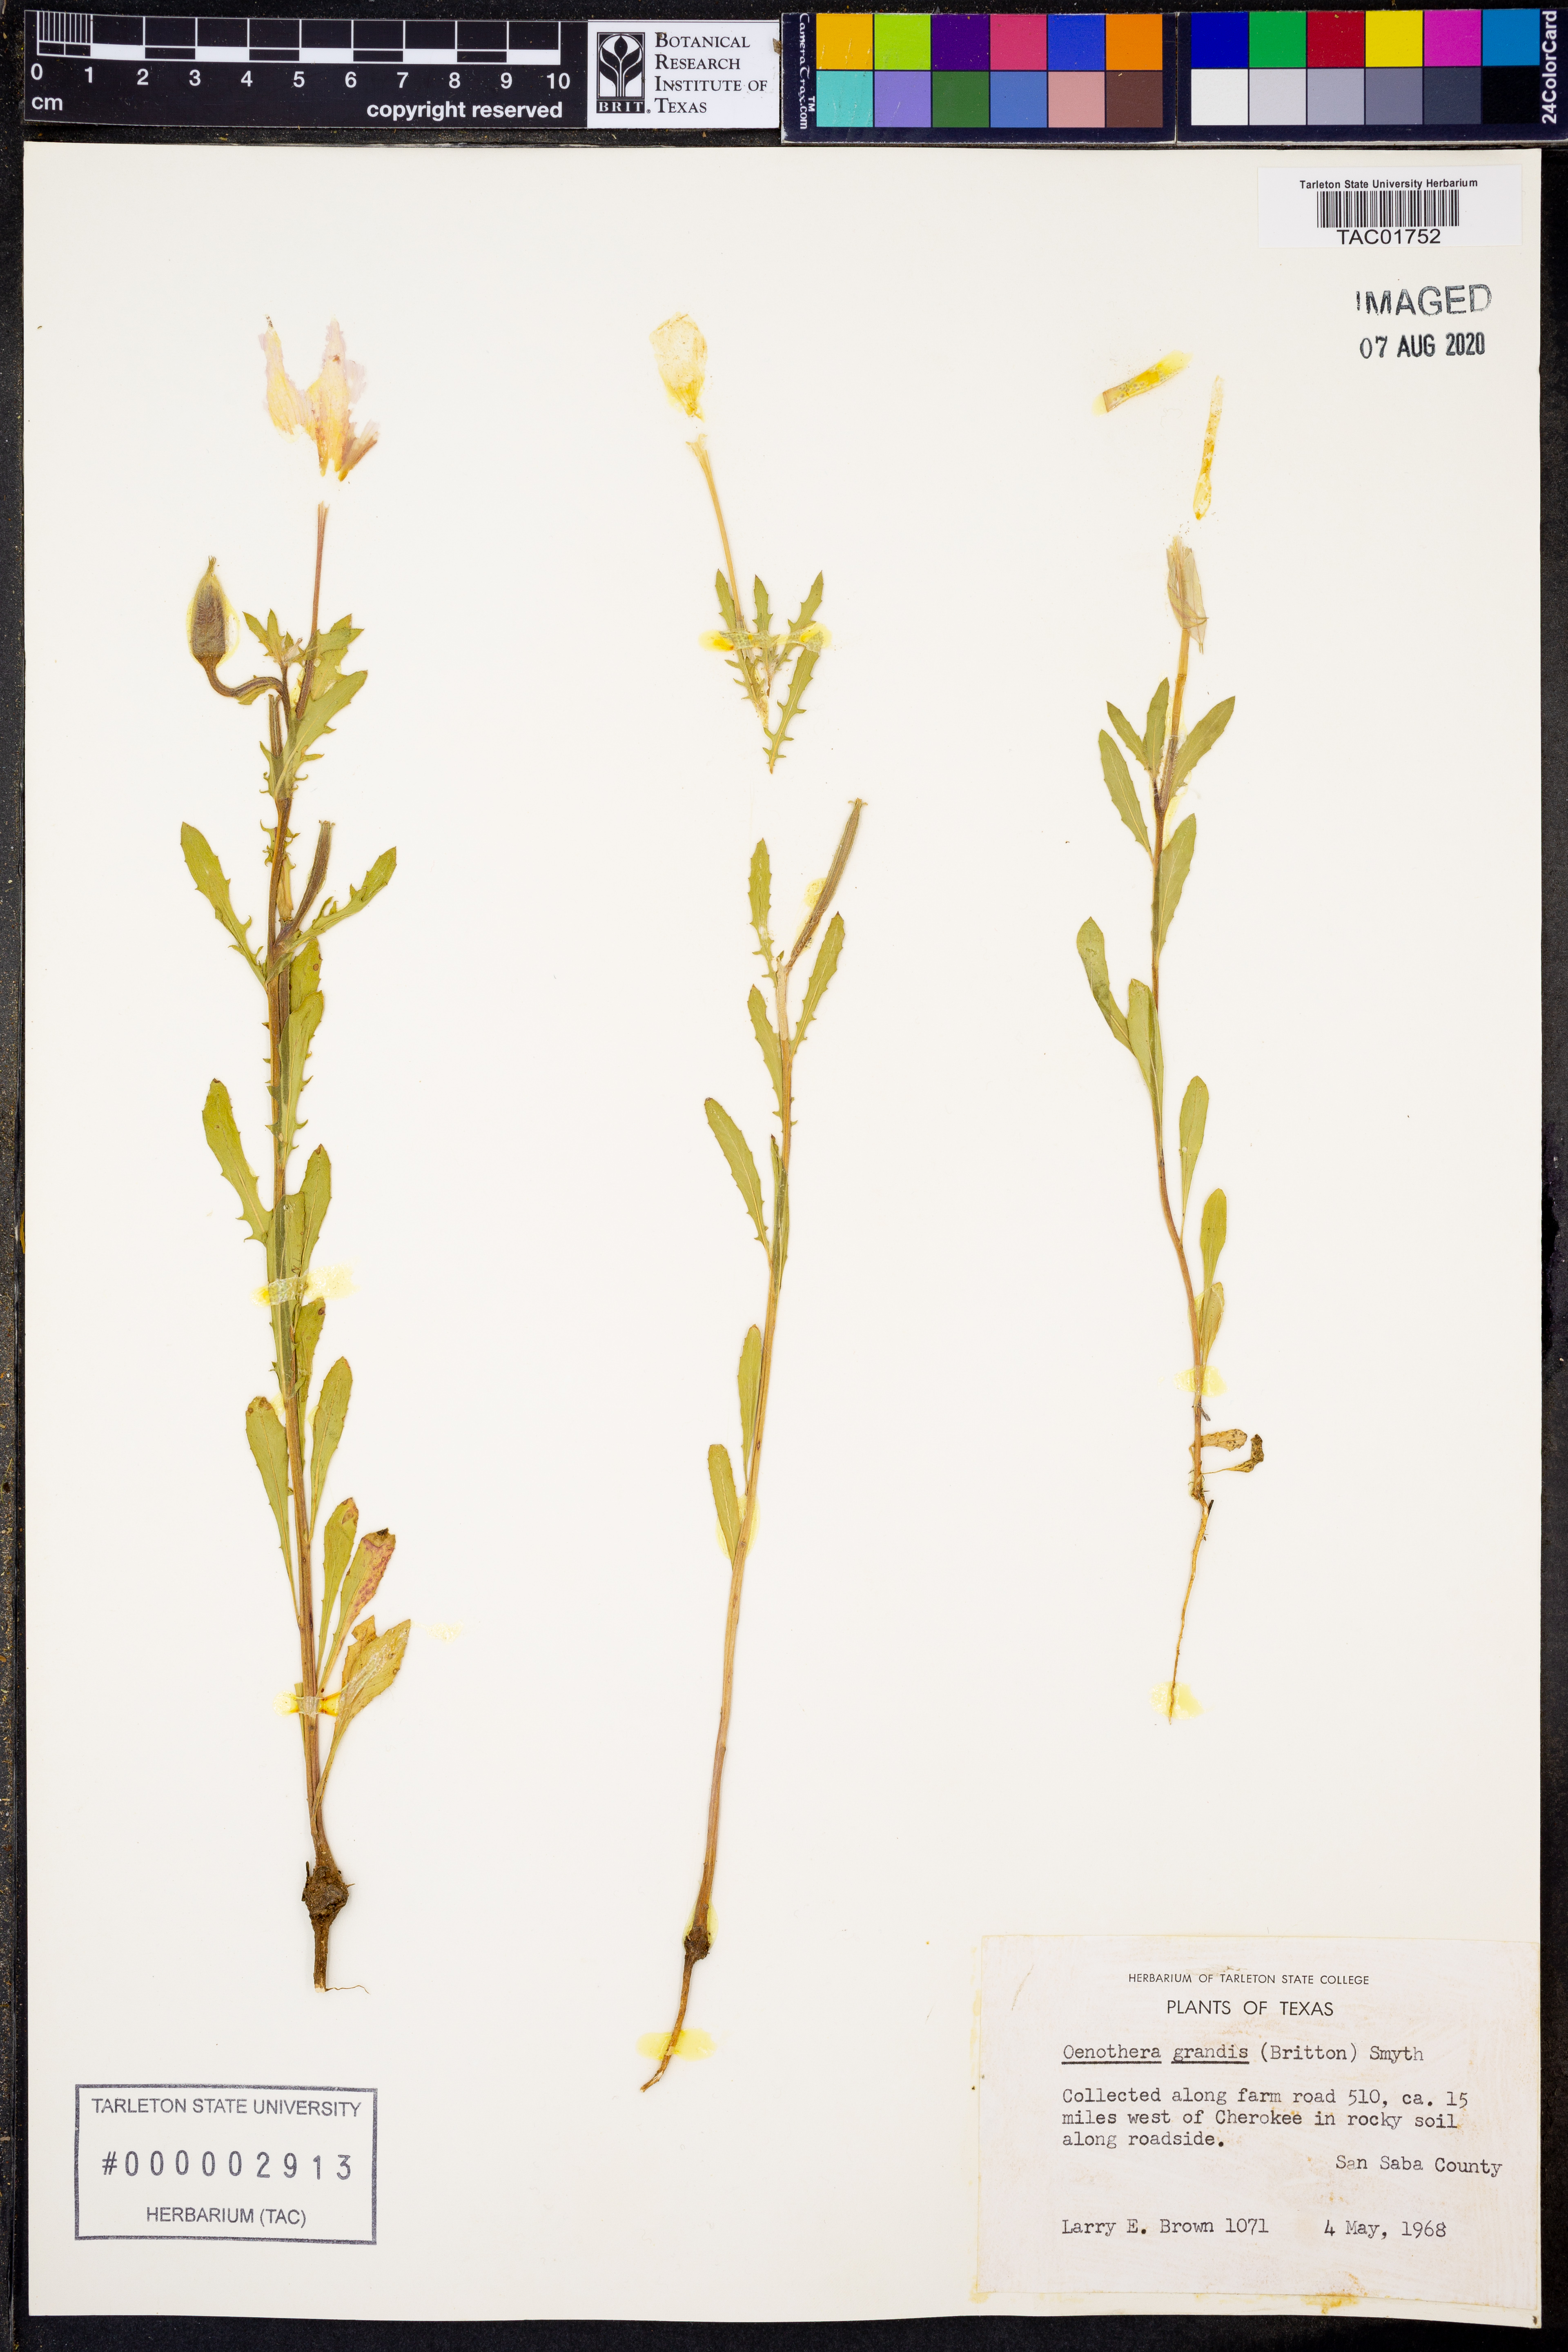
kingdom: Plantae
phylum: Tracheophyta
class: Magnoliopsida
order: Myrtales
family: Onagraceae
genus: Oenothera
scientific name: Oenothera grandis
